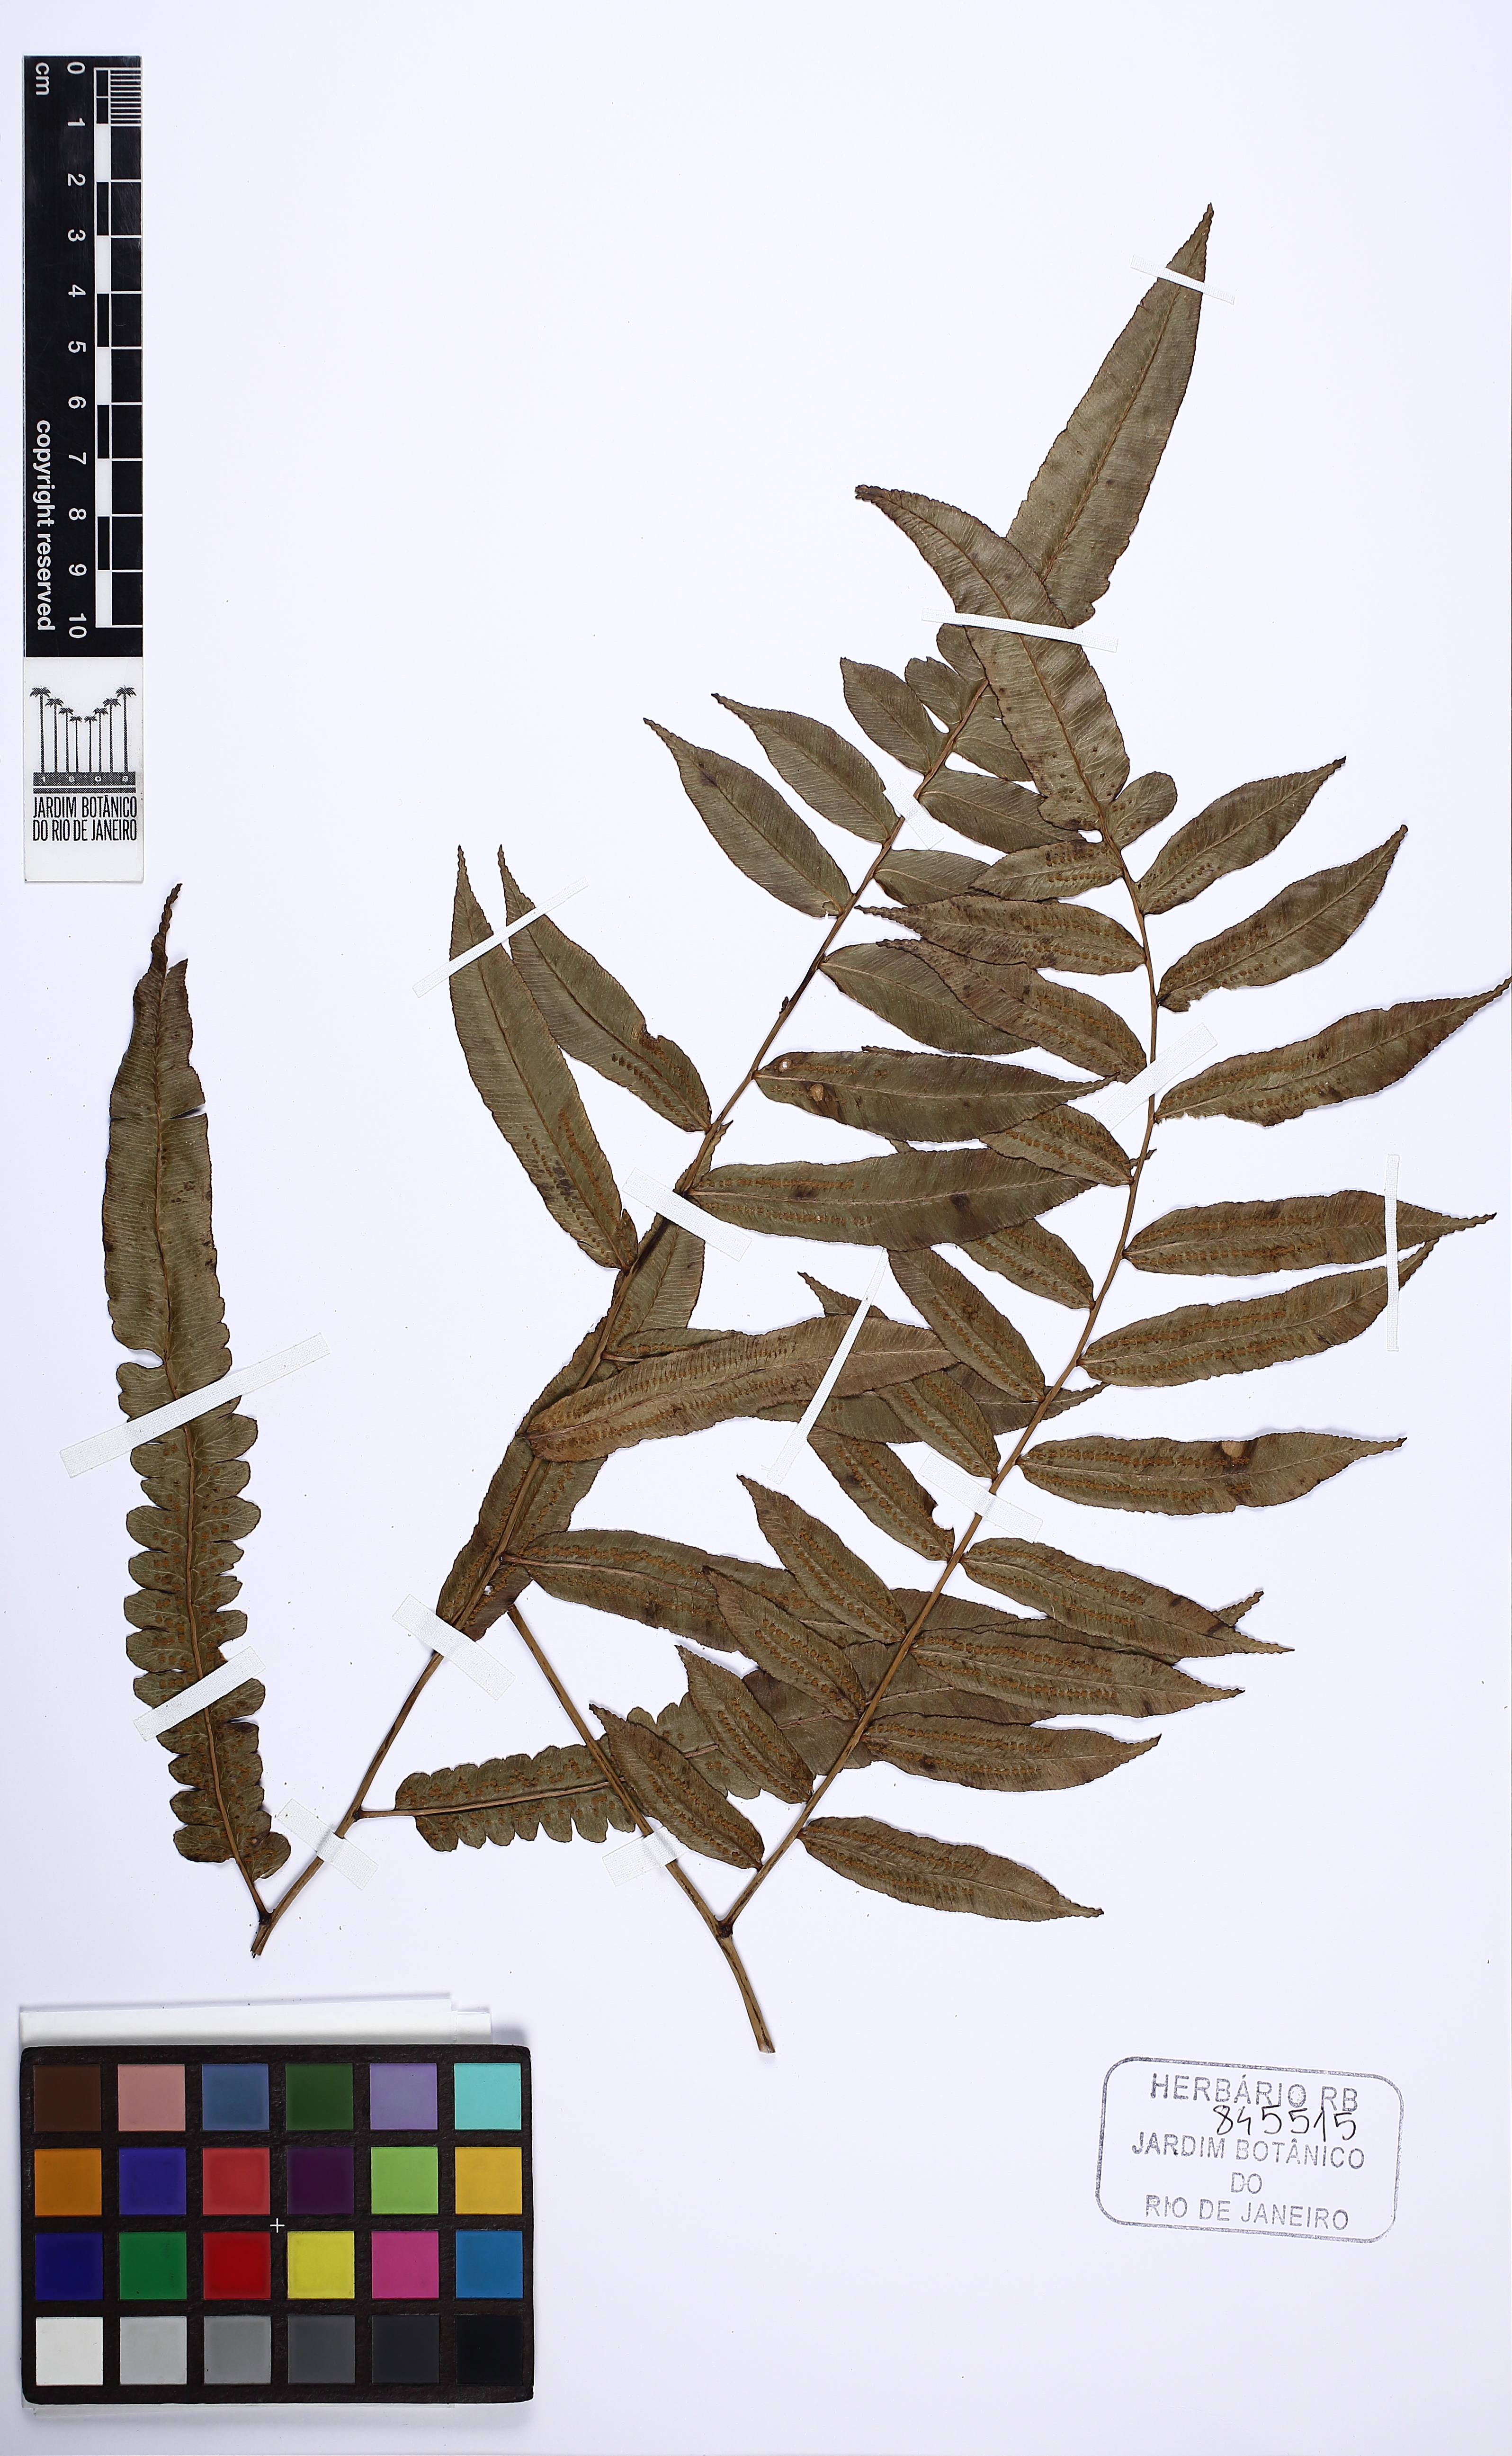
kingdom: Plantae
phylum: Tracheophyta
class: Polypodiopsida
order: Cyatheales
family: Cyatheaceae
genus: Cyathea
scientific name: Cyathea
